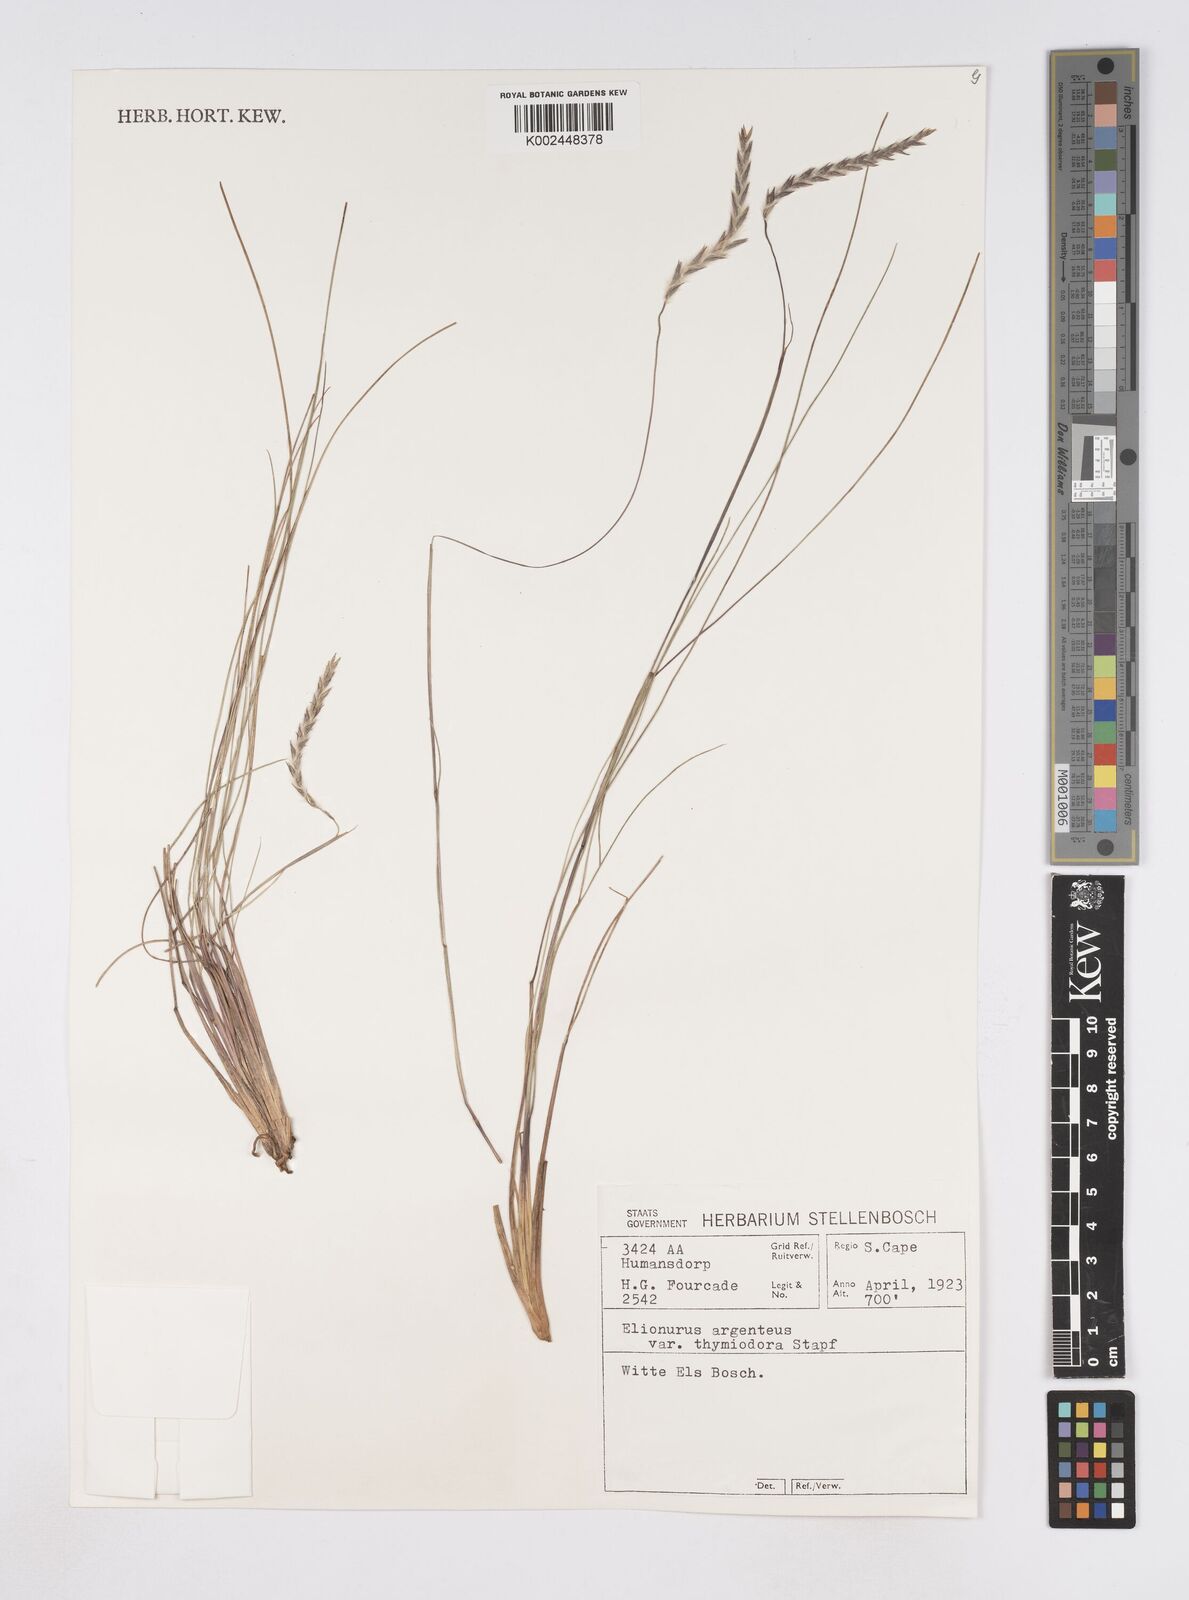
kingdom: Plantae
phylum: Tracheophyta
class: Liliopsida
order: Poales
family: Poaceae
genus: Elionurus
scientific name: Elionurus muticus
